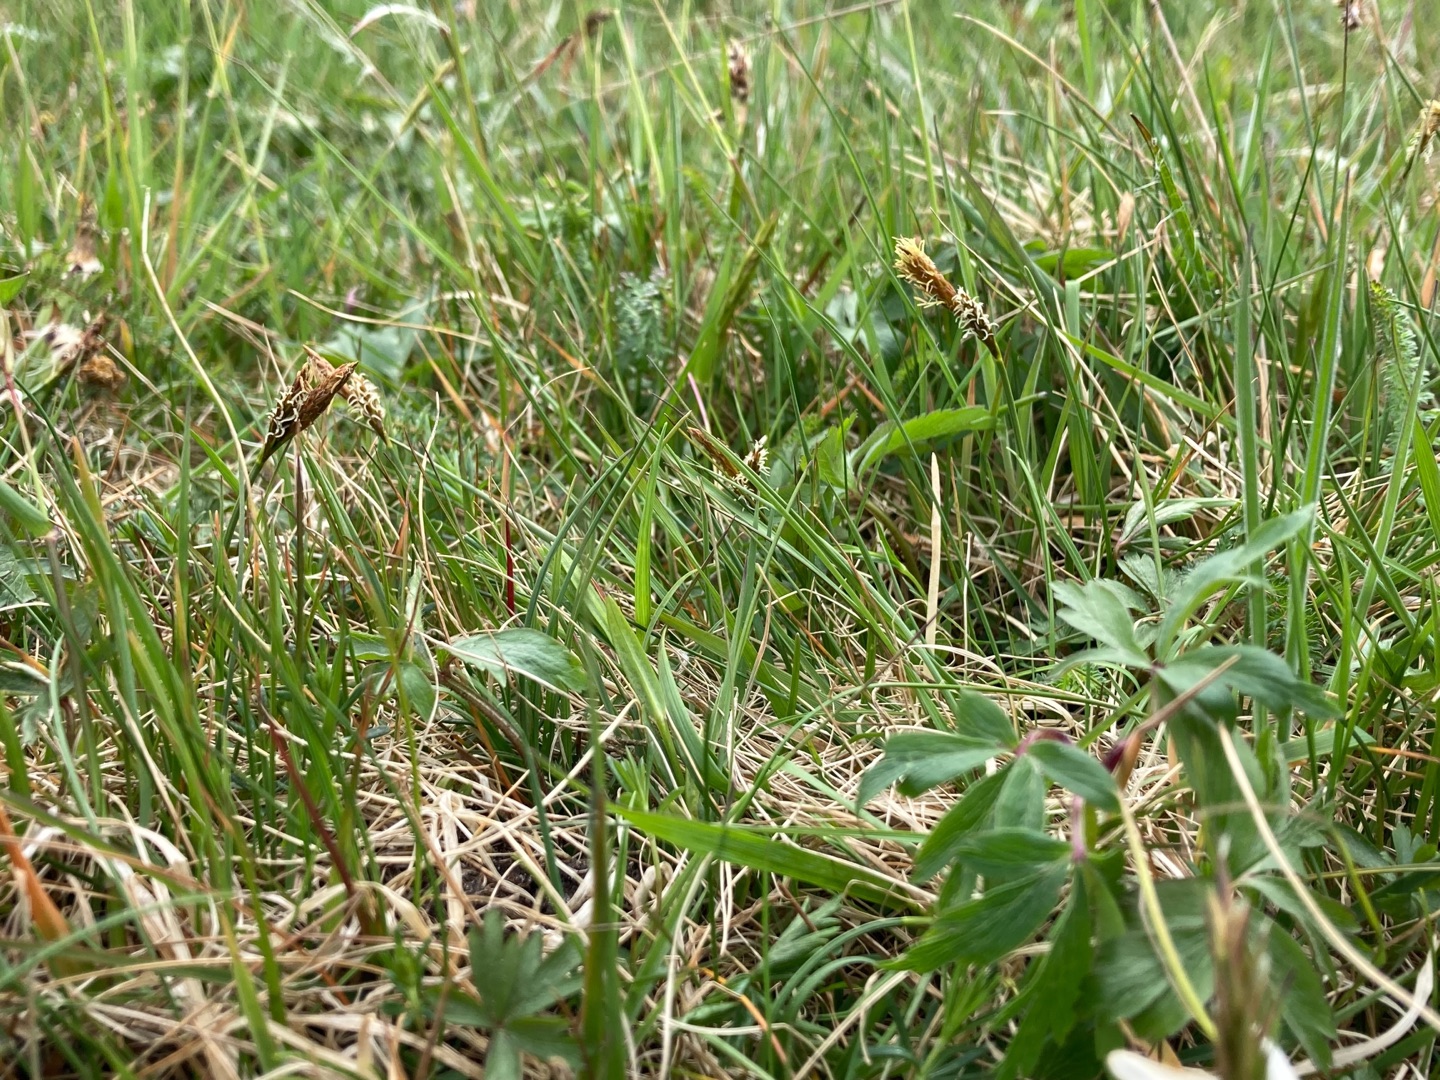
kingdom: Plantae
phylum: Tracheophyta
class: Liliopsida
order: Poales
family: Cyperaceae
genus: Carex
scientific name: Carex caryophyllea
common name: Vår-star
